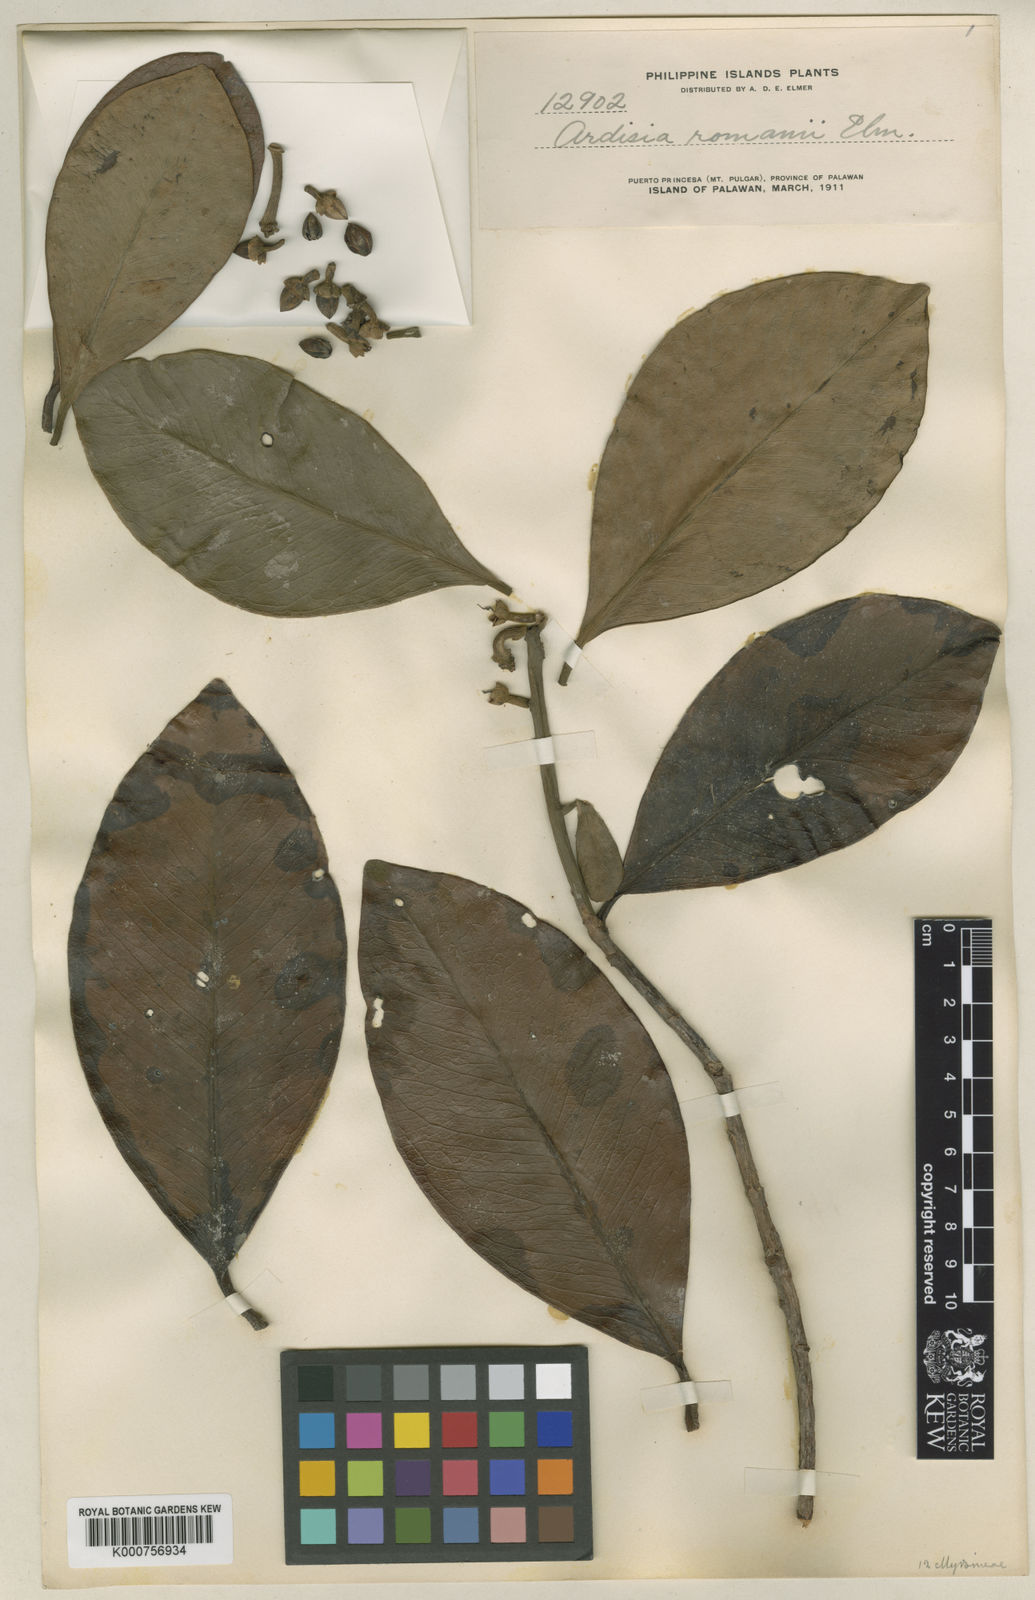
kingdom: Plantae
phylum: Tracheophyta
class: Magnoliopsida
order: Ericales
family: Primulaceae
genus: Ardisia
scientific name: Ardisia romanii
